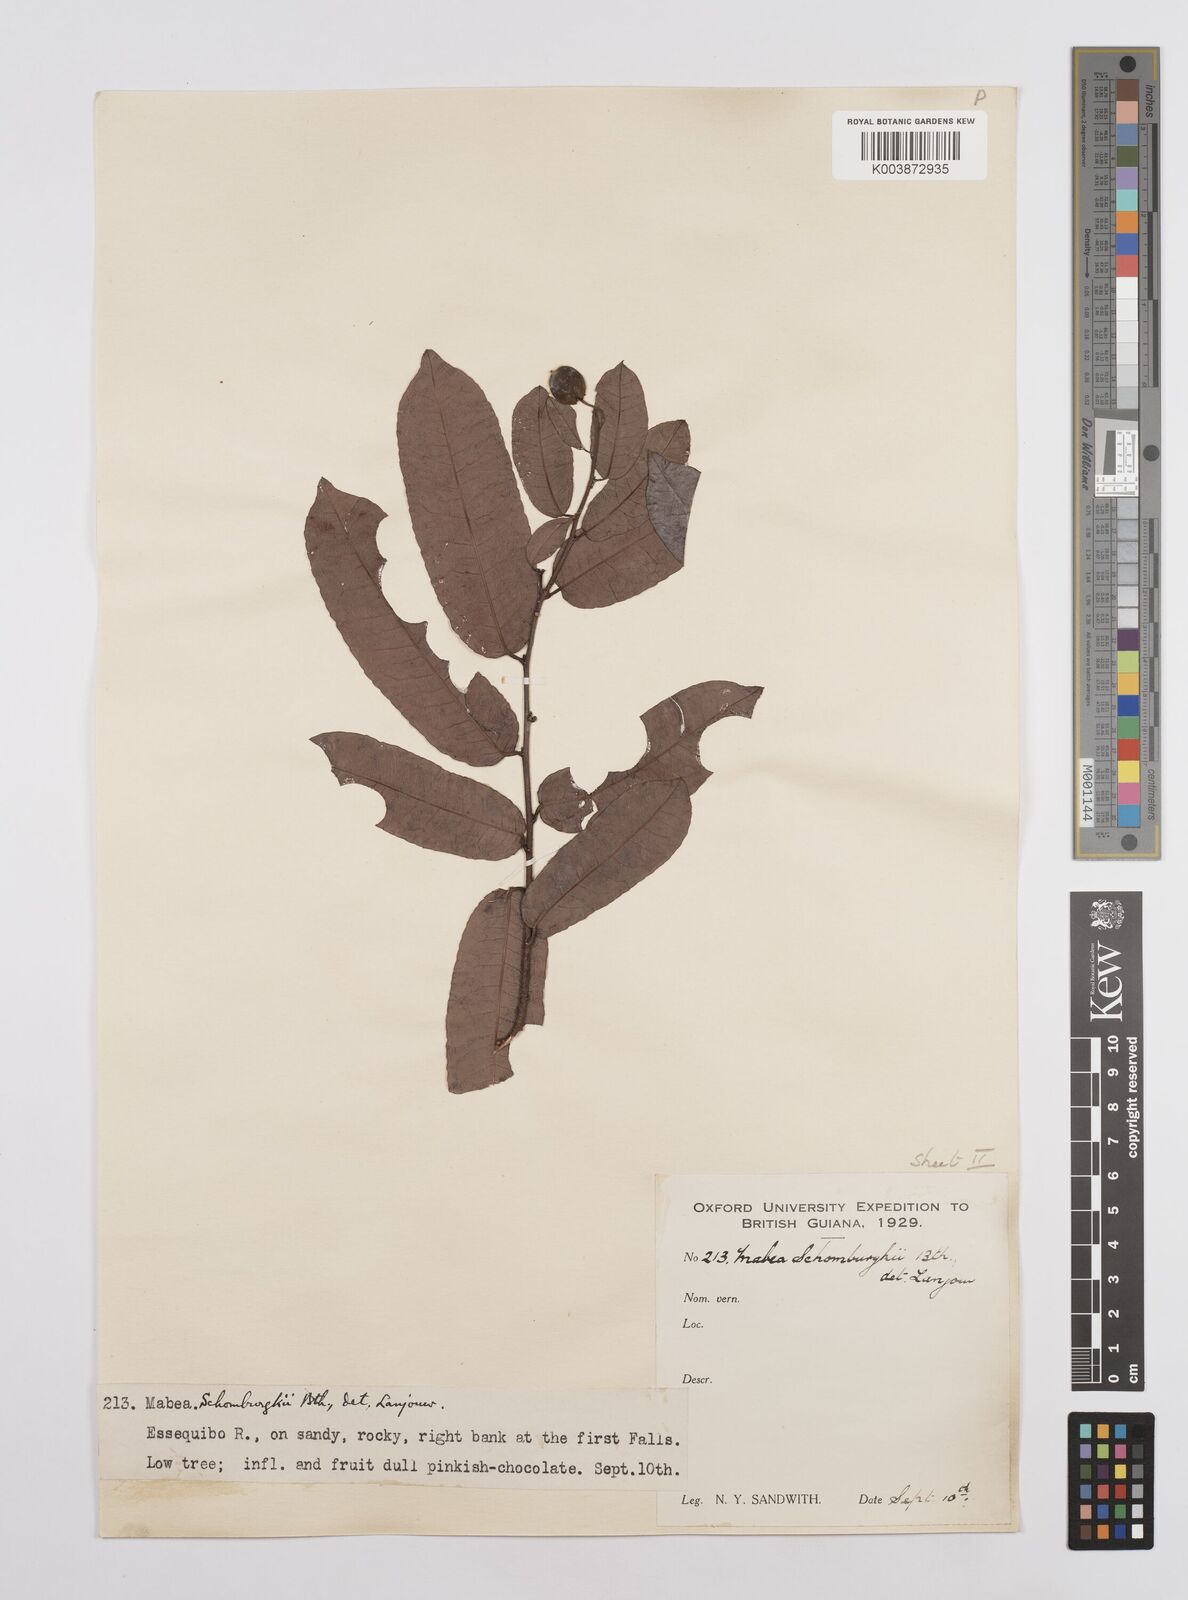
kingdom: Plantae
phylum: Tracheophyta
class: Magnoliopsida
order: Malpighiales
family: Euphorbiaceae
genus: Mabea
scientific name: Mabea taquari
